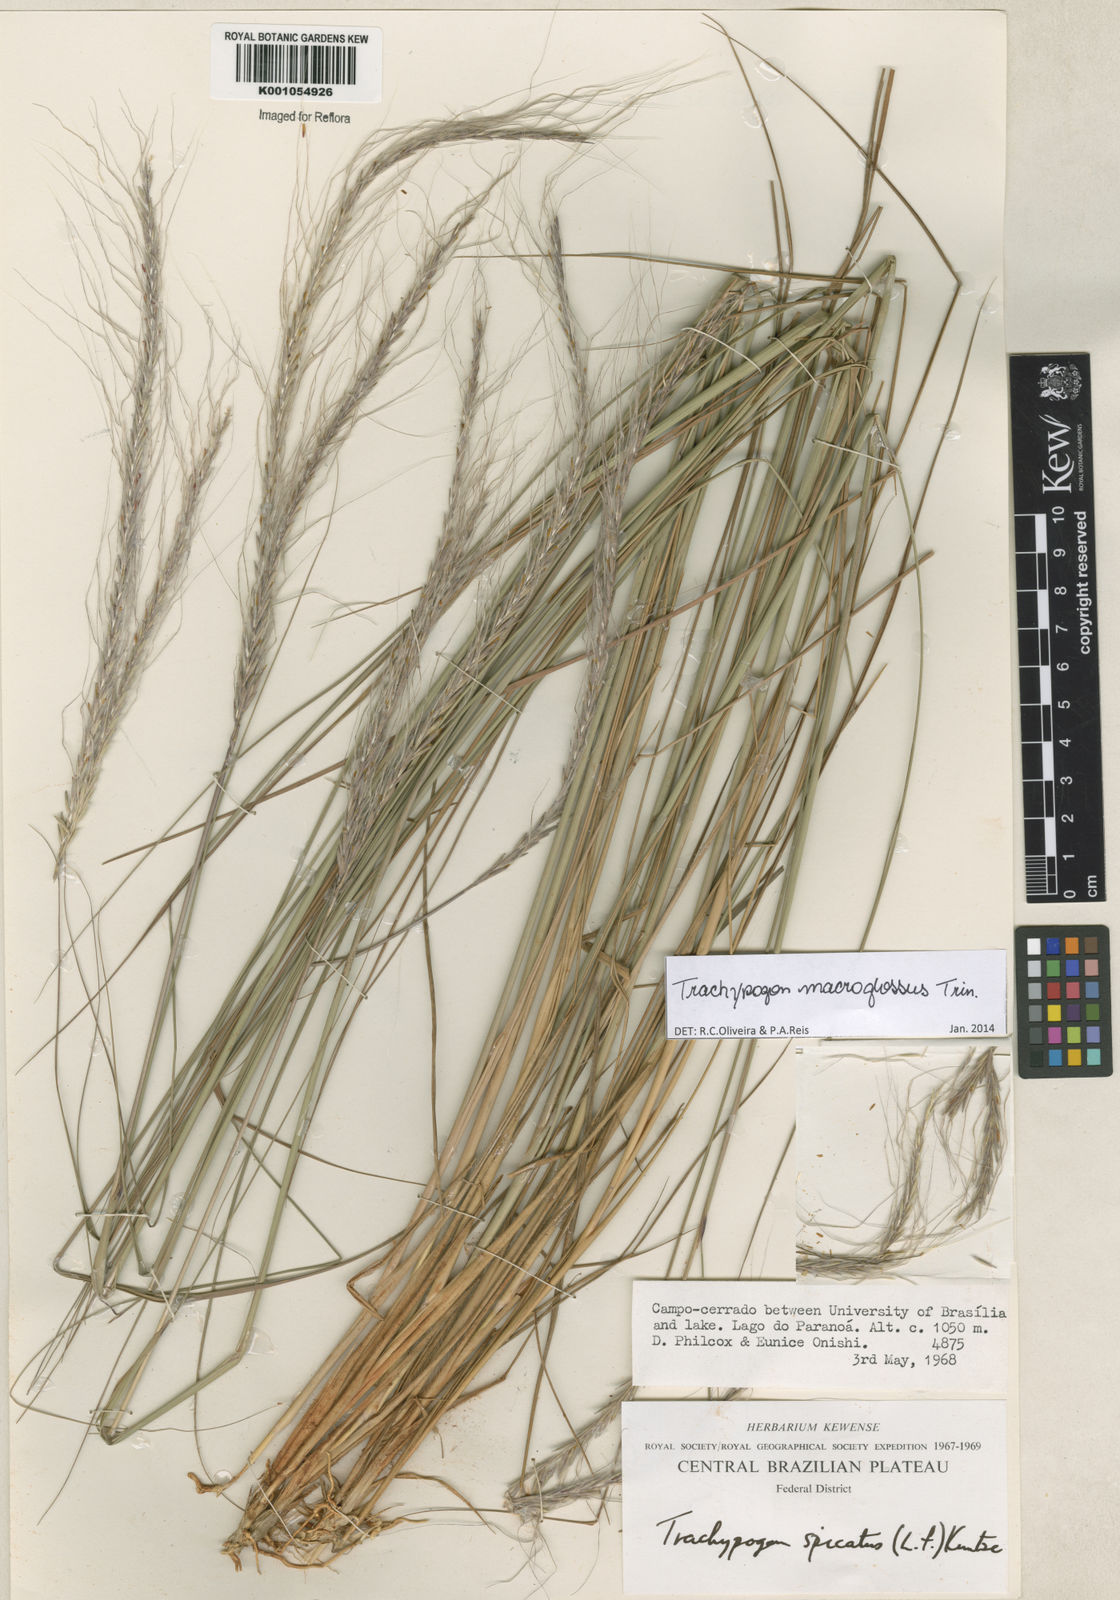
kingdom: Plantae
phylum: Tracheophyta
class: Liliopsida
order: Poales
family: Poaceae
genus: Trachypogon
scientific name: Trachypogon macroglossus
